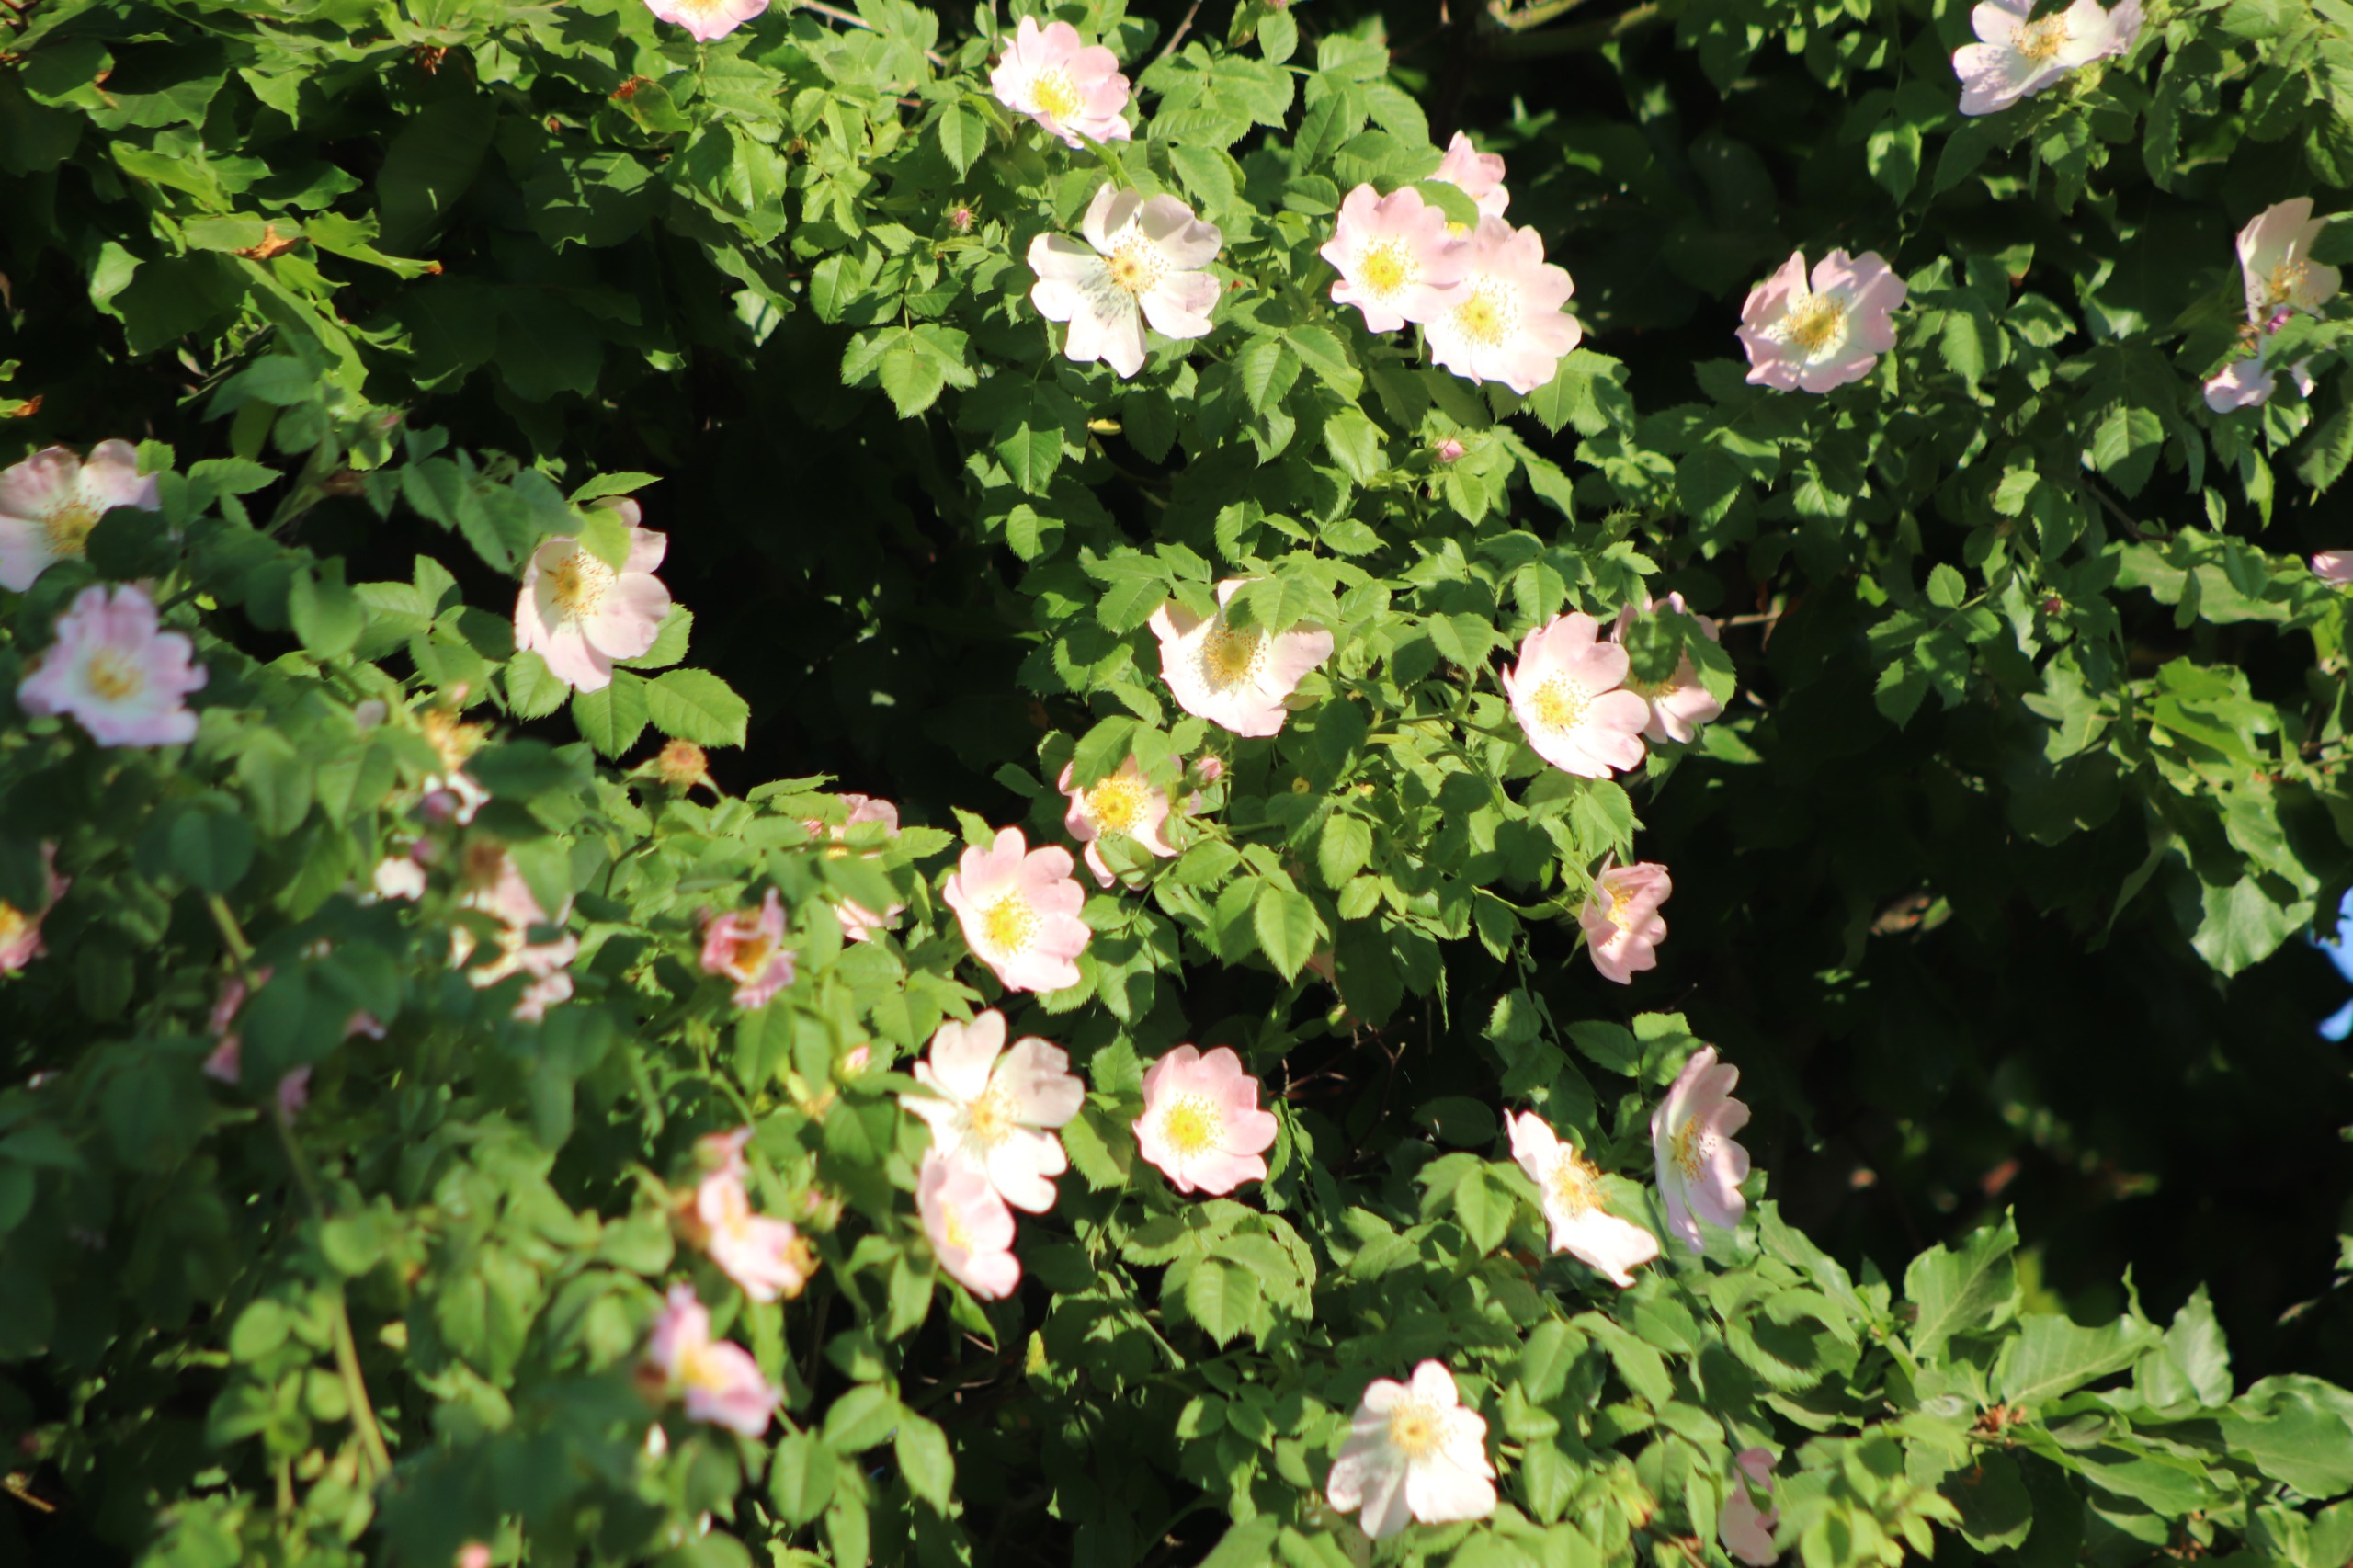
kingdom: Plantae
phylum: Tracheophyta
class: Magnoliopsida
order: Rosales
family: Rosaceae
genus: Rosa
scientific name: Rosa canina
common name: Hunde-rose
